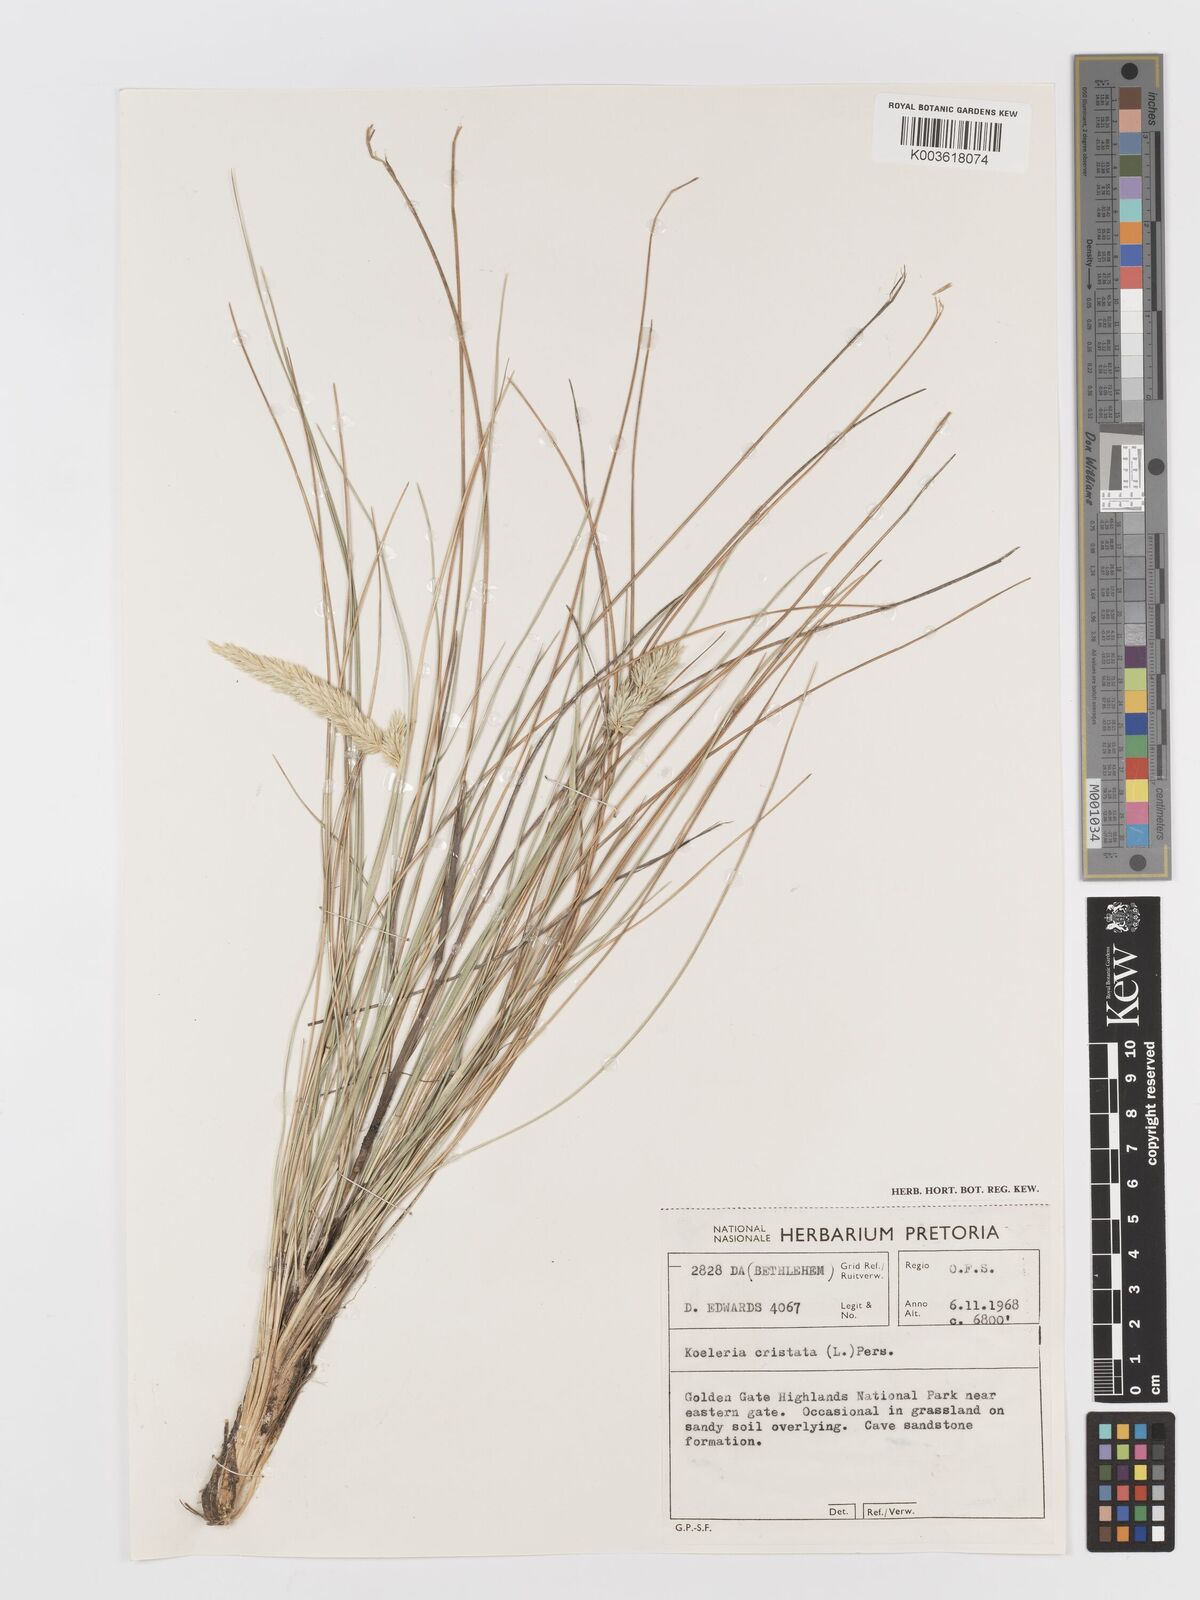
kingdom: Plantae
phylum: Tracheophyta
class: Liliopsida
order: Poales
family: Poaceae
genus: Koeleria
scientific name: Koeleria capensis
